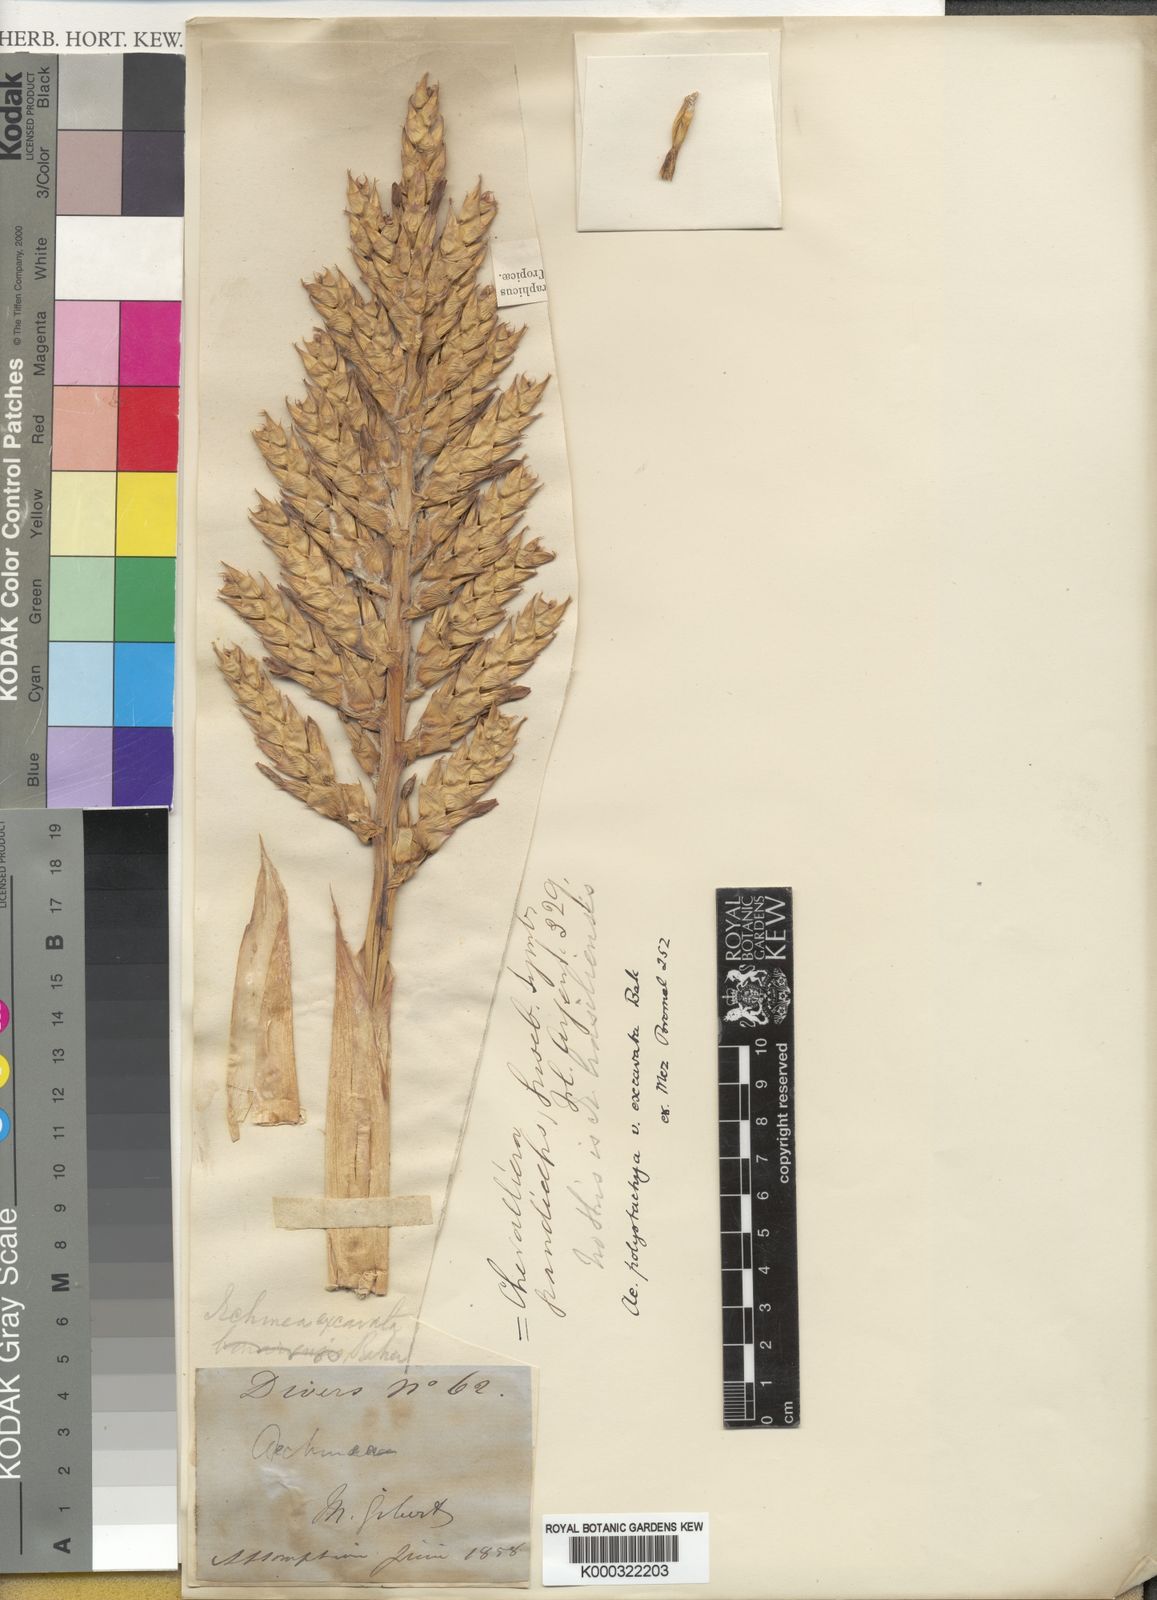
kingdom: Plantae
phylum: Tracheophyta
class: Liliopsida
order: Poales
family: Bromeliaceae
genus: Aechmea
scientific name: Aechmea distichantha
